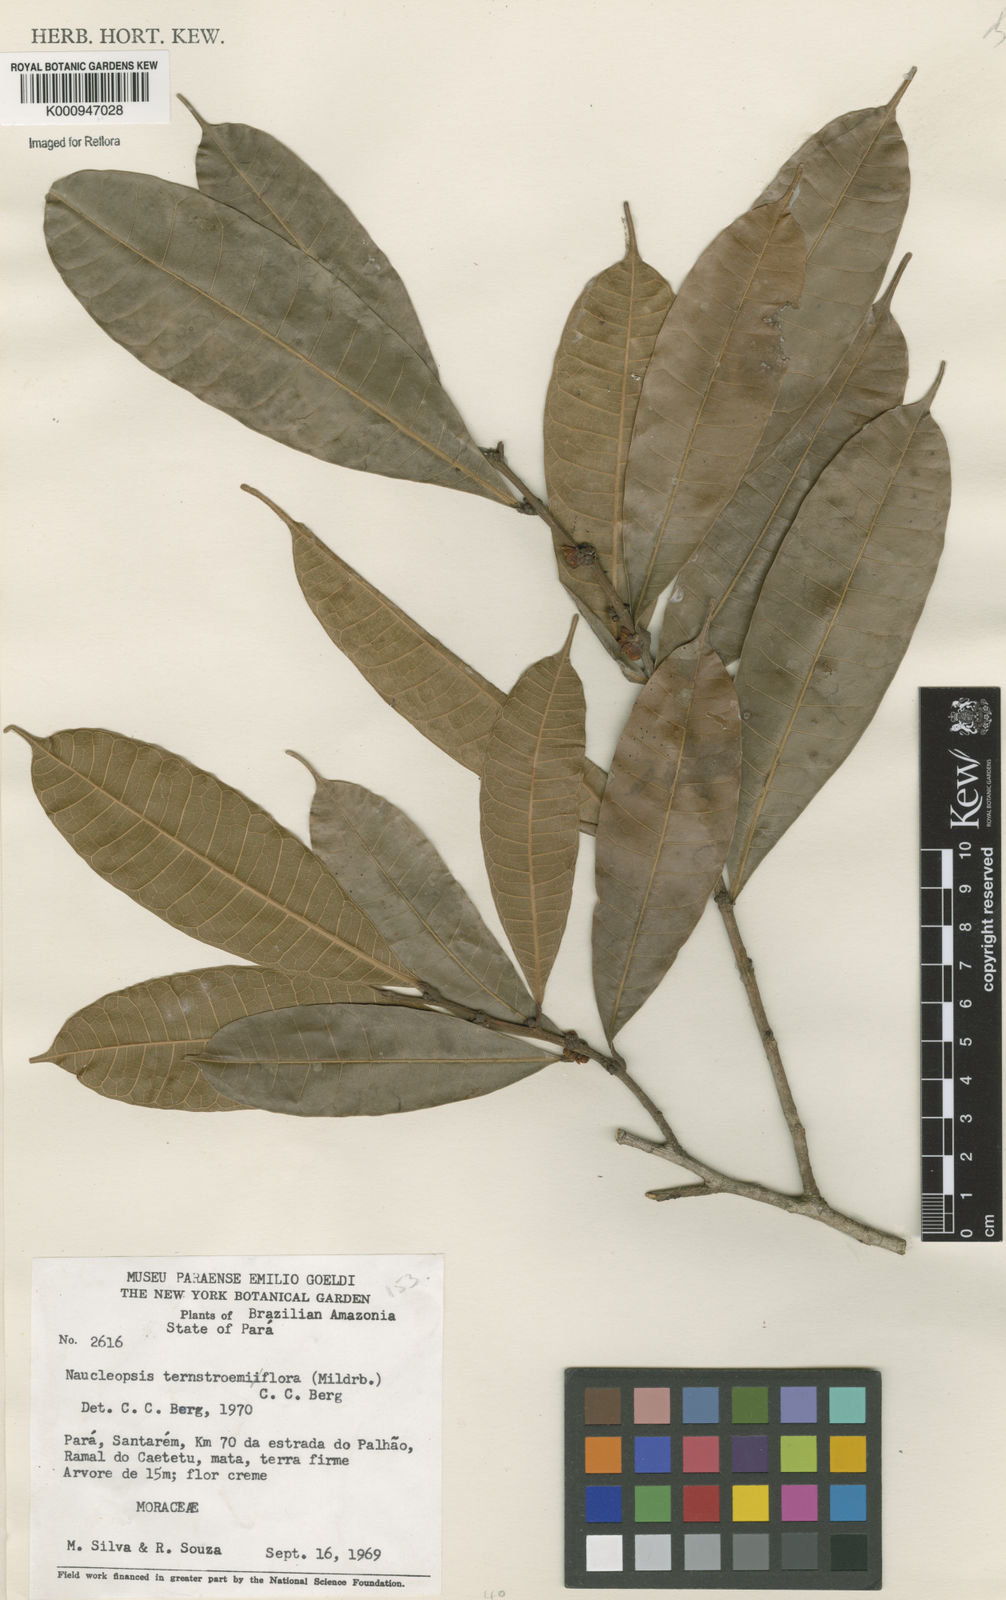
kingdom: Plantae
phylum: Tracheophyta
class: Magnoliopsida
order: Rosales
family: Moraceae
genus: Naucleopsis
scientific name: Naucleopsis ternstroemiiflora
